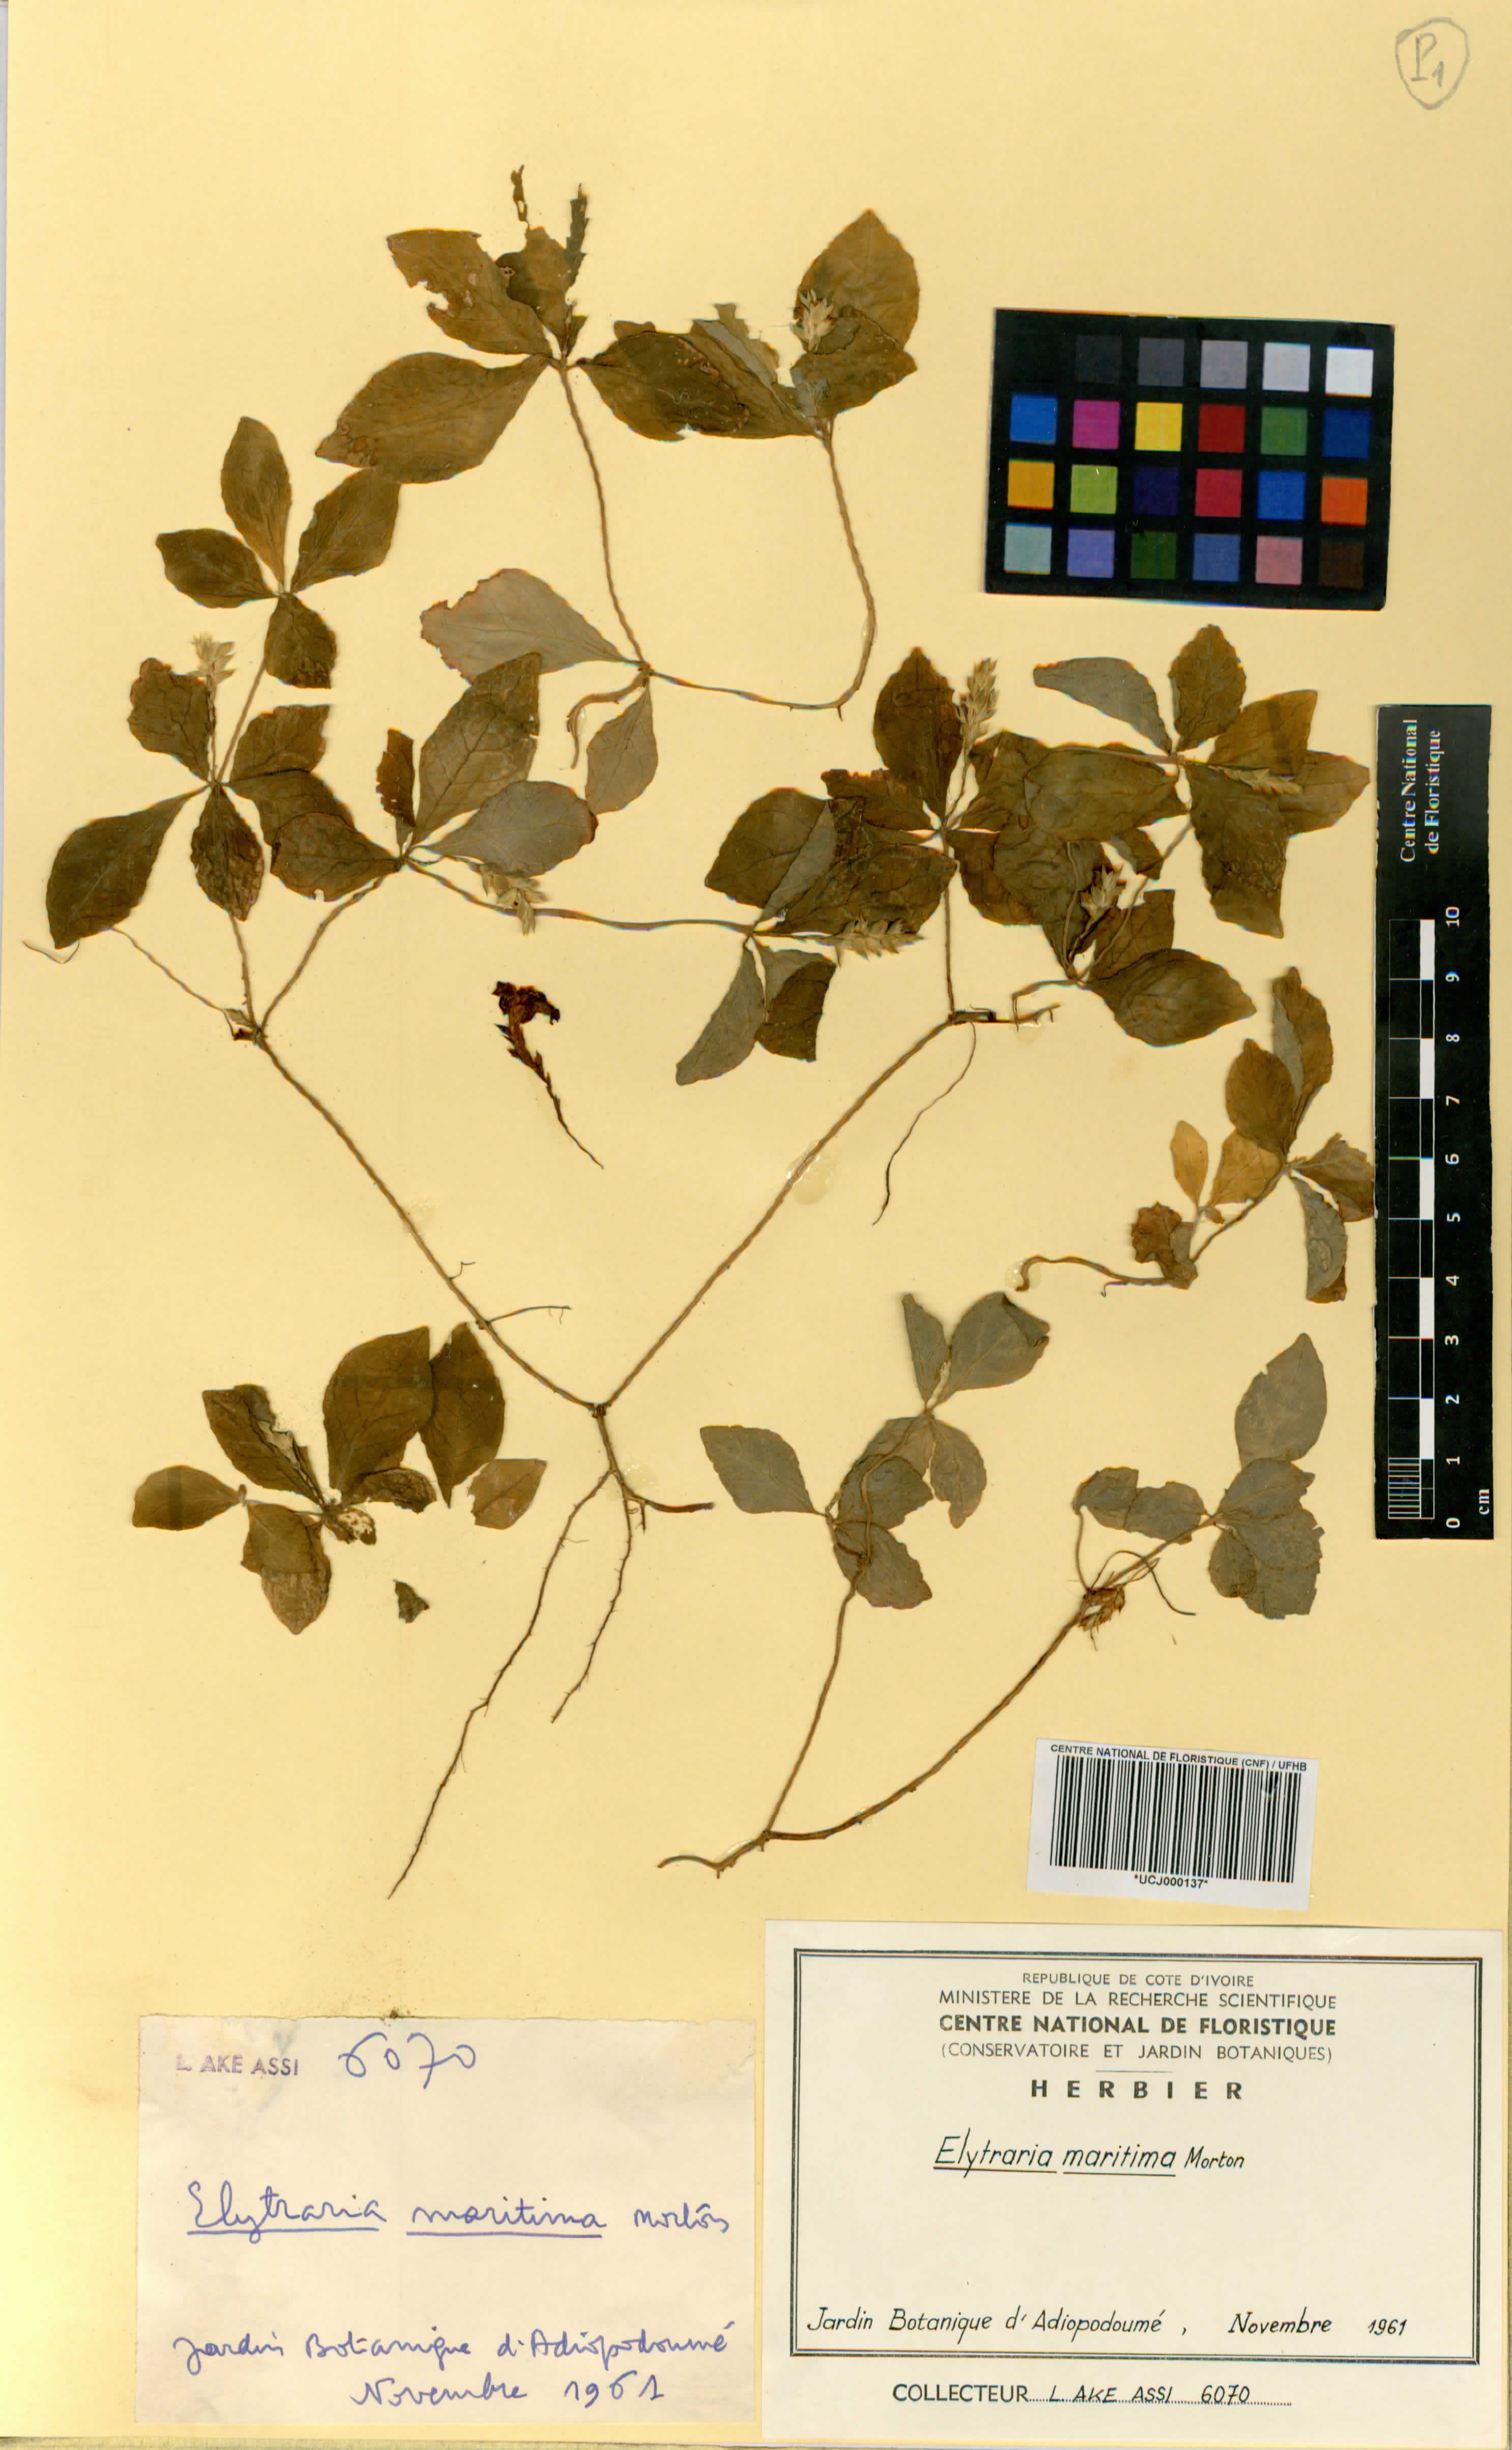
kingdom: Plantae
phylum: Tracheophyta
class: Magnoliopsida
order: Lamiales
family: Acanthaceae
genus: Elytraria
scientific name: Elytraria maritima
